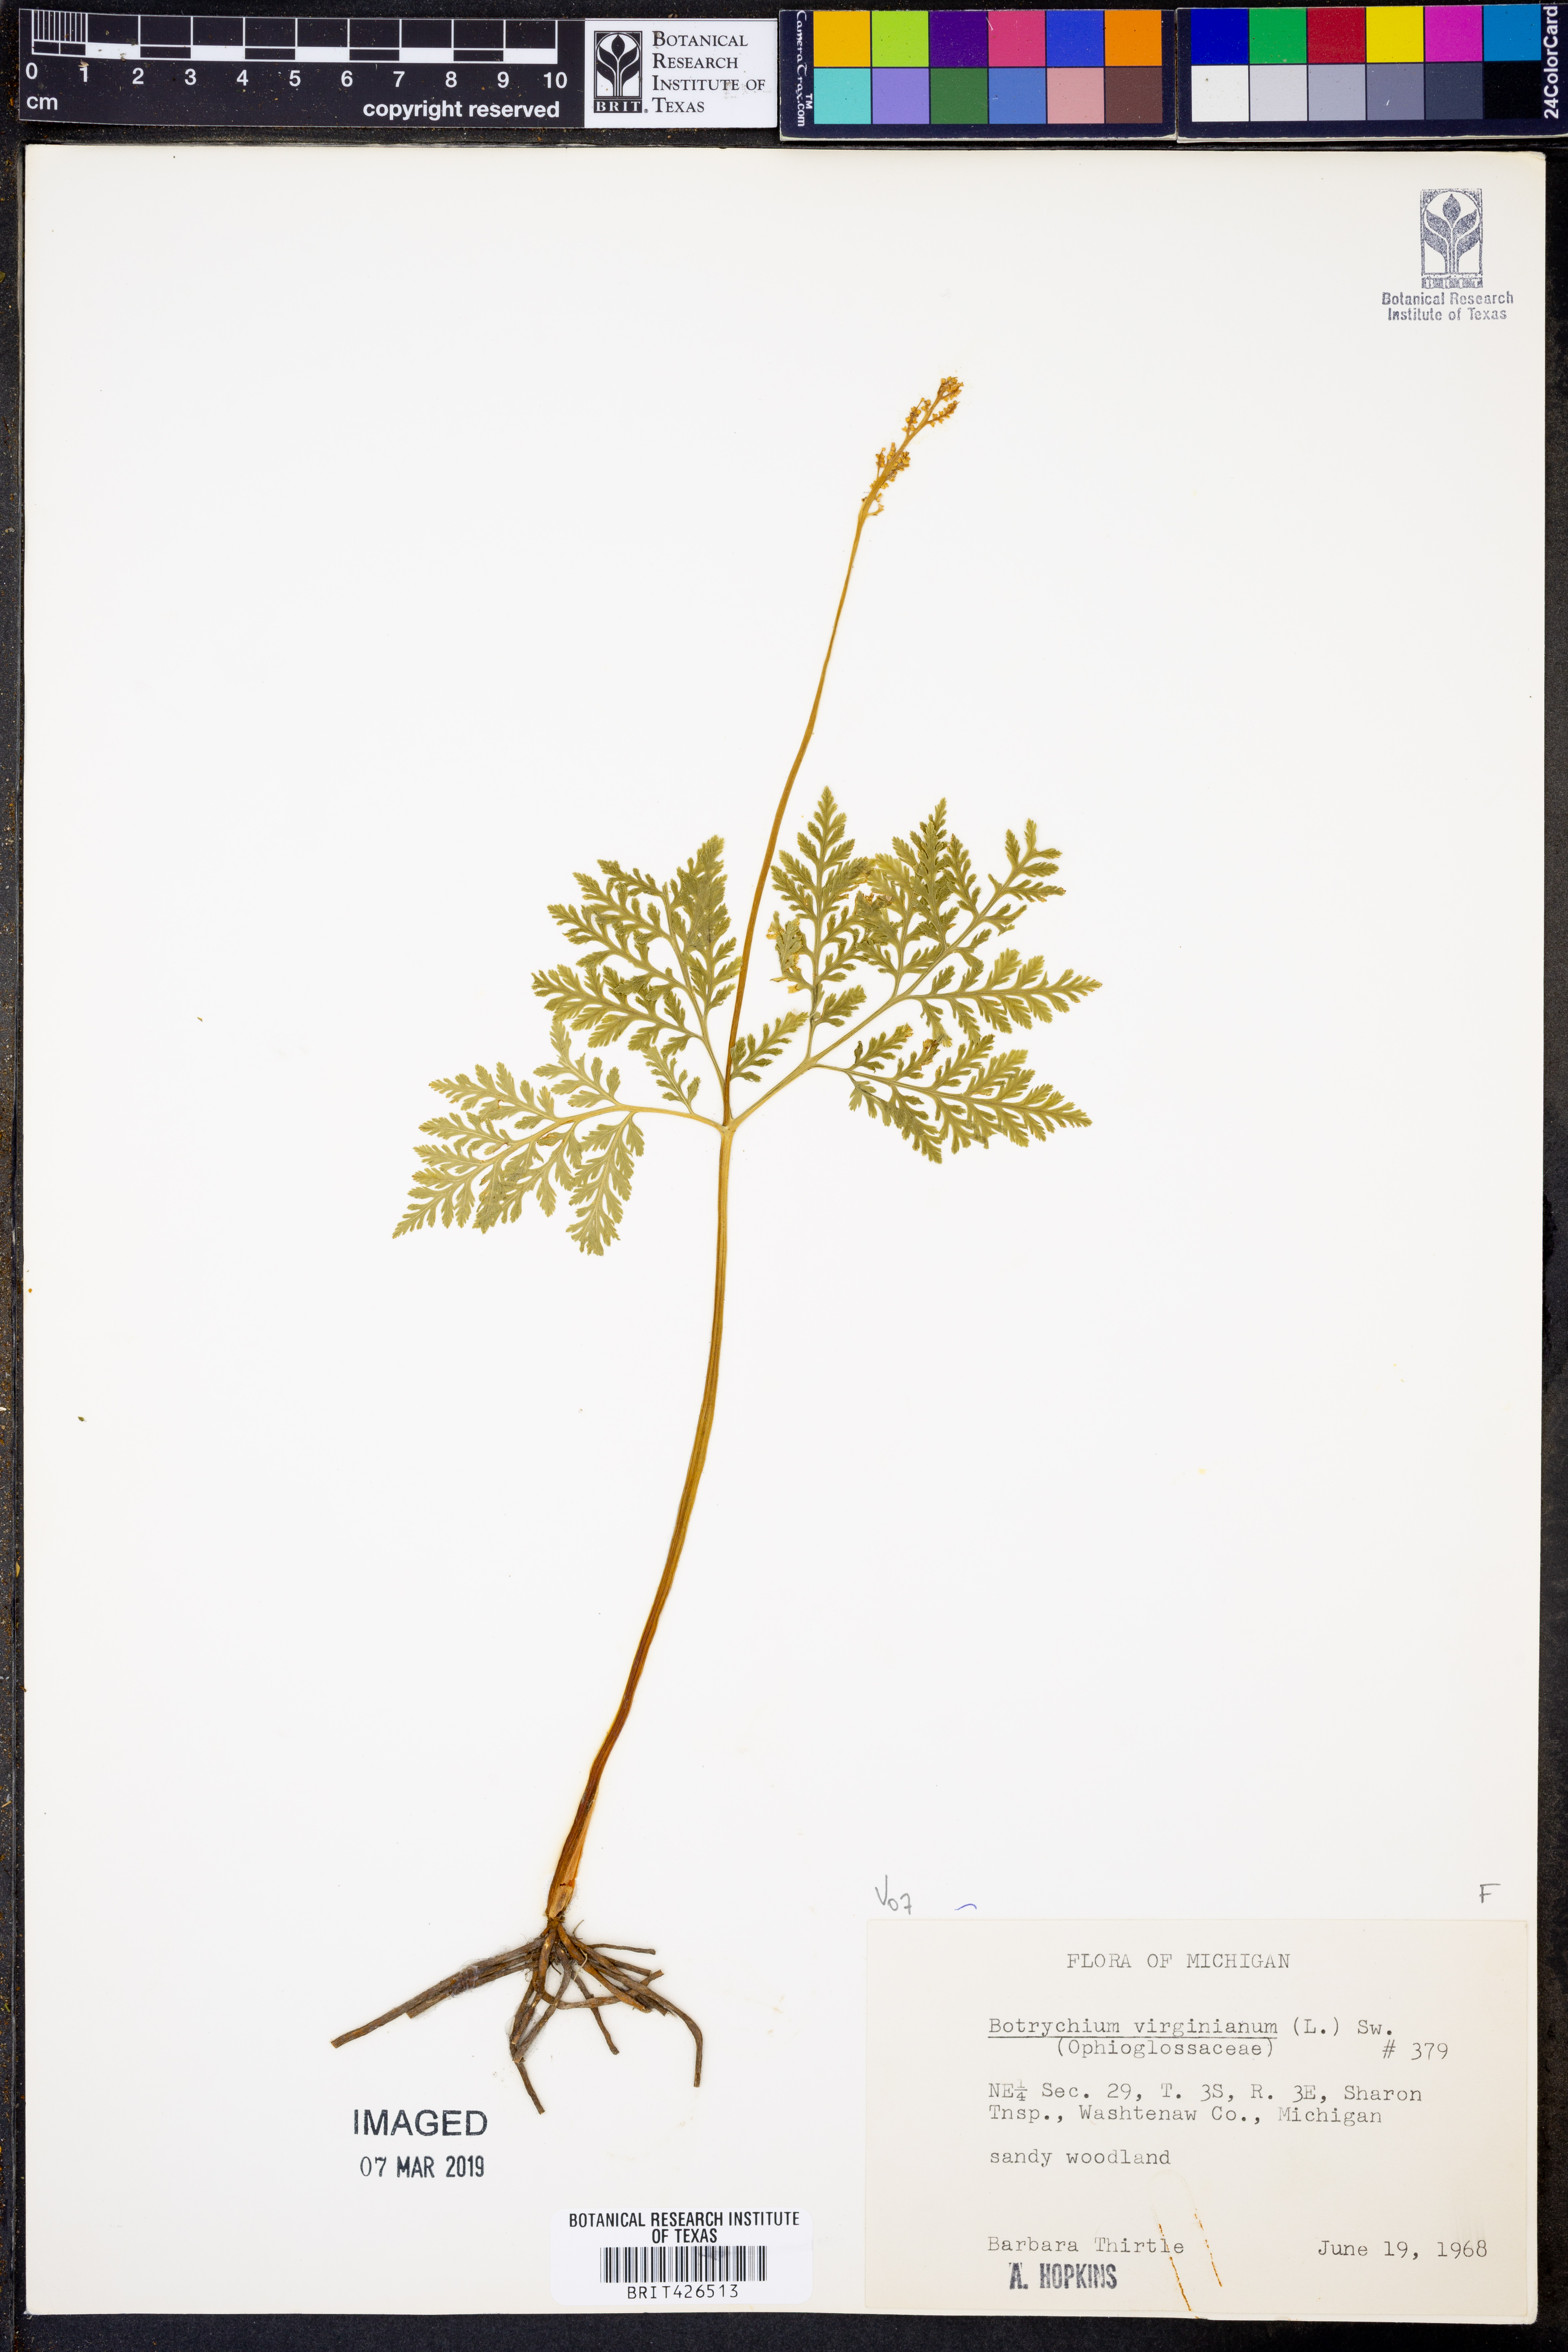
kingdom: Plantae
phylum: Tracheophyta
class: Polypodiopsida
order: Ophioglossales
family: Ophioglossaceae
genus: Botrypus
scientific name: Botrypus virginianus
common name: Common grapefern
